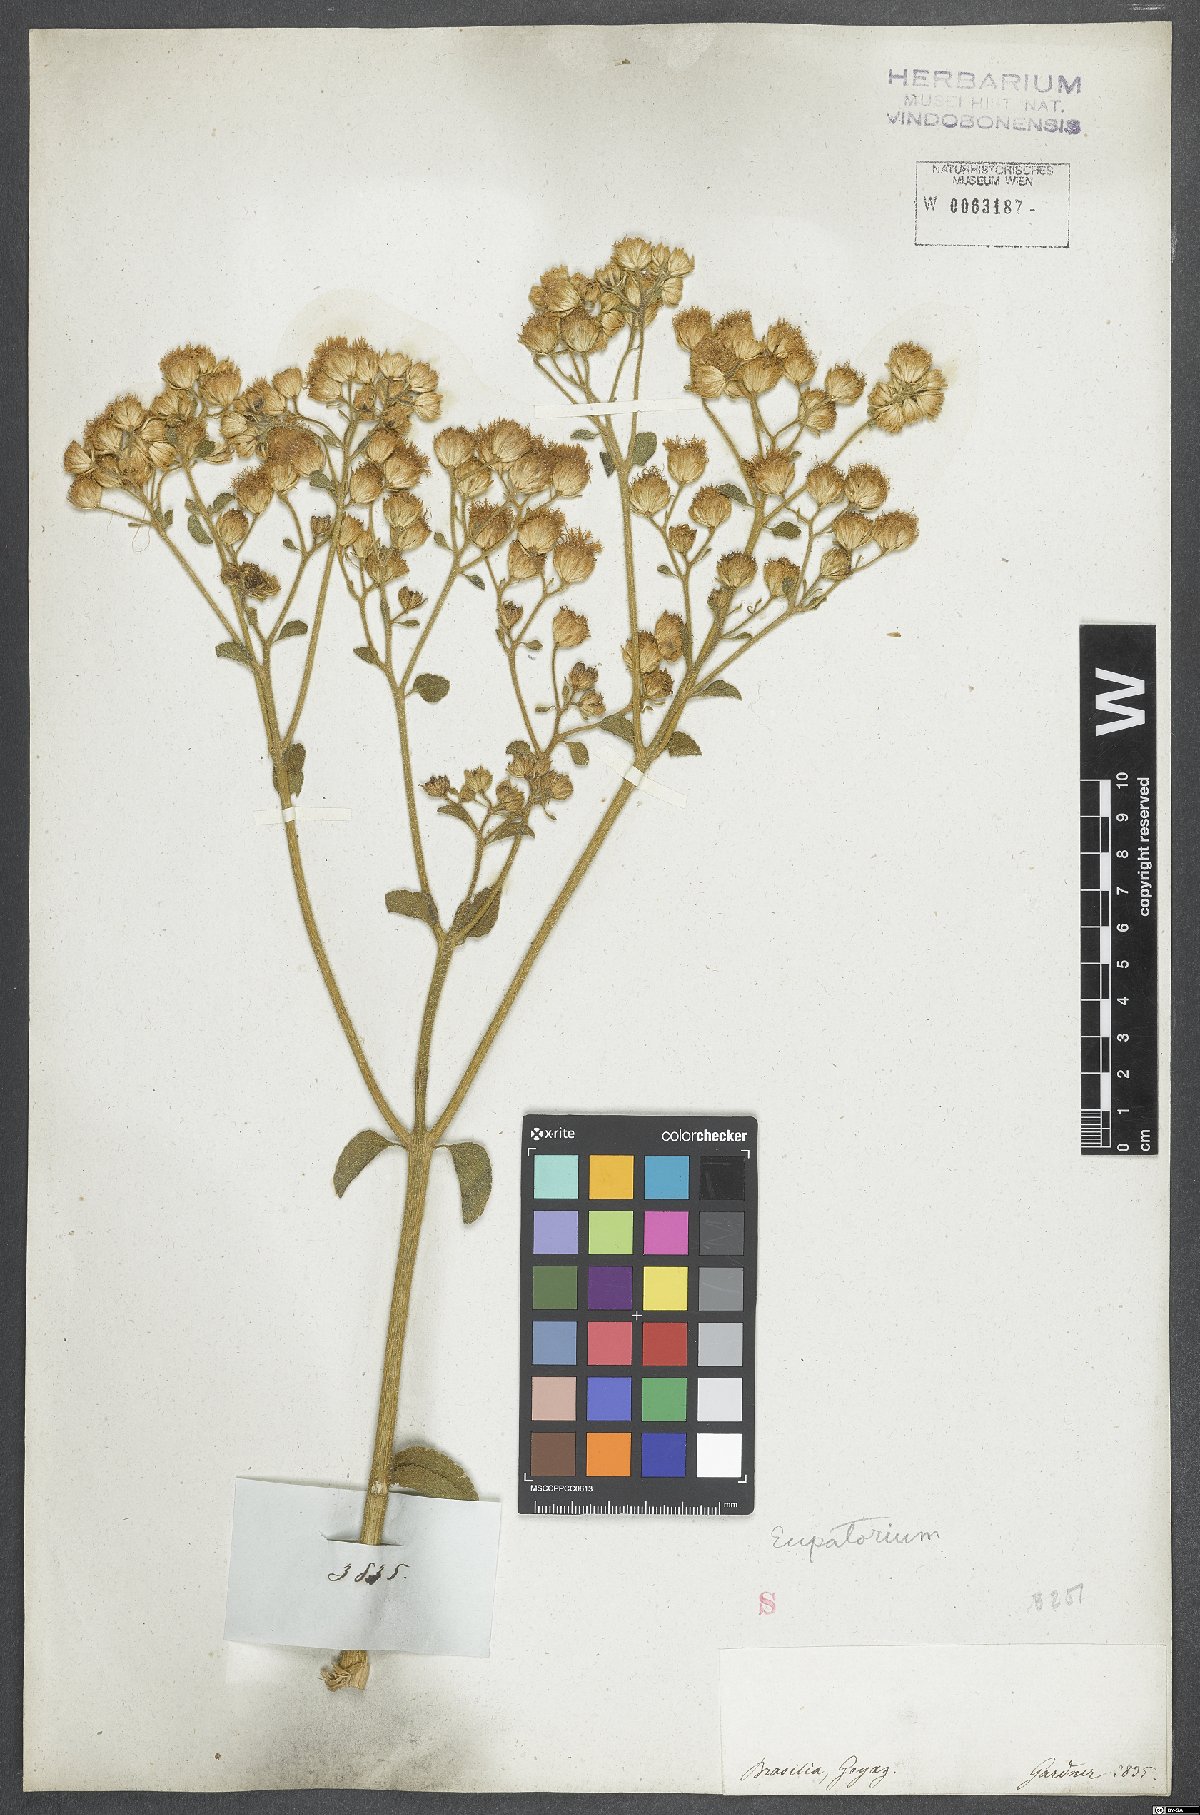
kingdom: Plantae
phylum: Tracheophyta
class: Magnoliopsida
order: Asterales
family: Asteraceae
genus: Eupatorium
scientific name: Eupatorium
